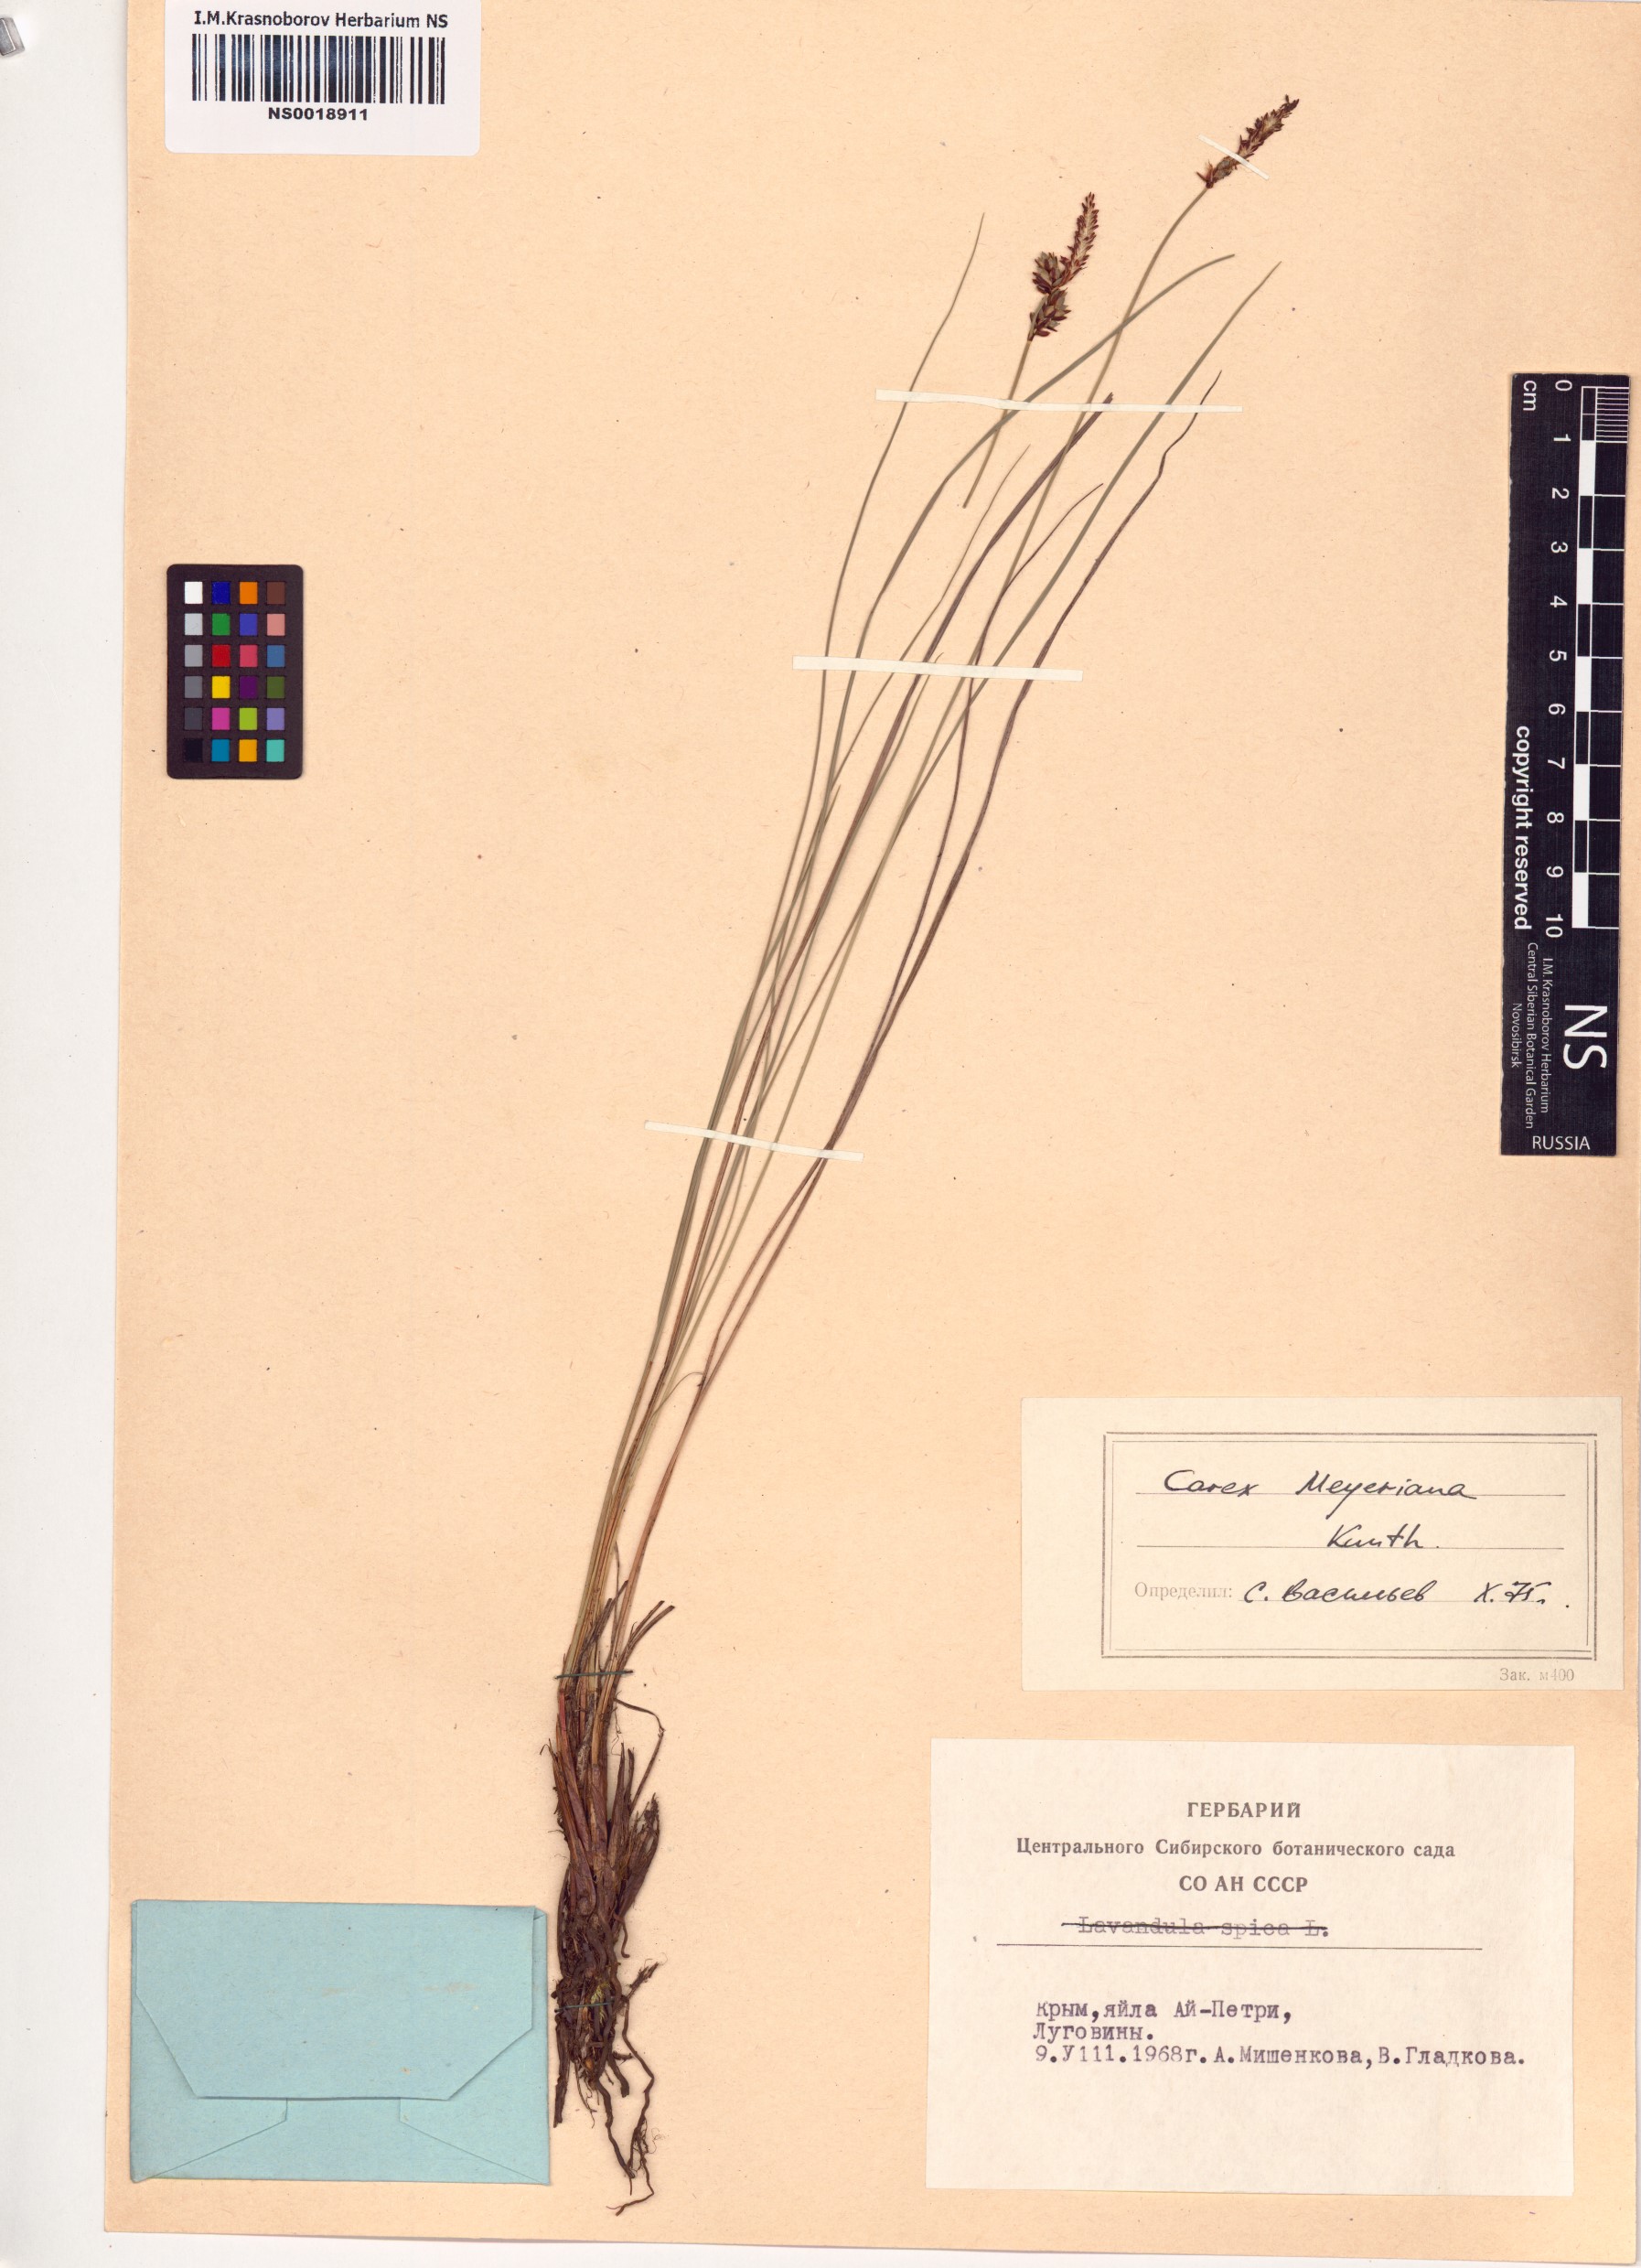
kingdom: Plantae
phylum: Tracheophyta
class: Liliopsida
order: Poales
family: Cyperaceae
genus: Carex
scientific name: Carex meyeriana
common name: Wula sedge
